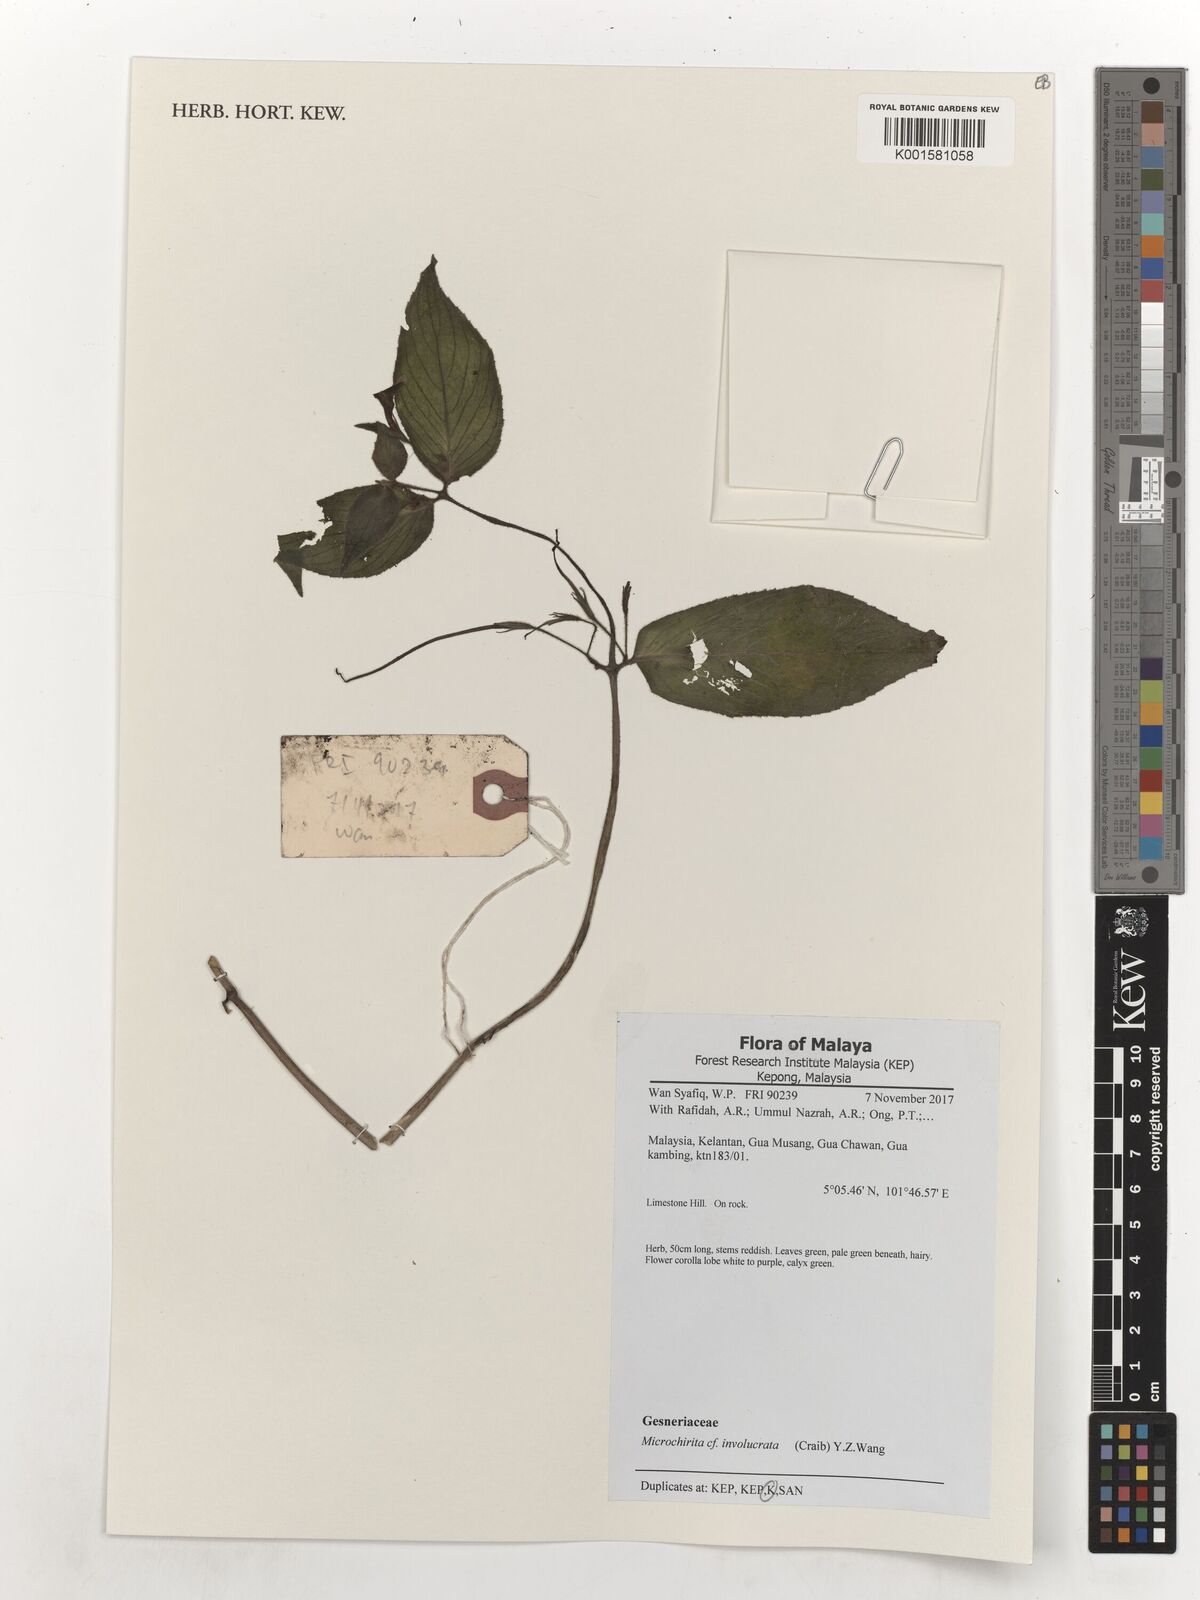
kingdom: Plantae
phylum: Tracheophyta
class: Magnoliopsida
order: Lamiales
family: Gesneriaceae
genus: Microchirita
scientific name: Microchirita involucrata
